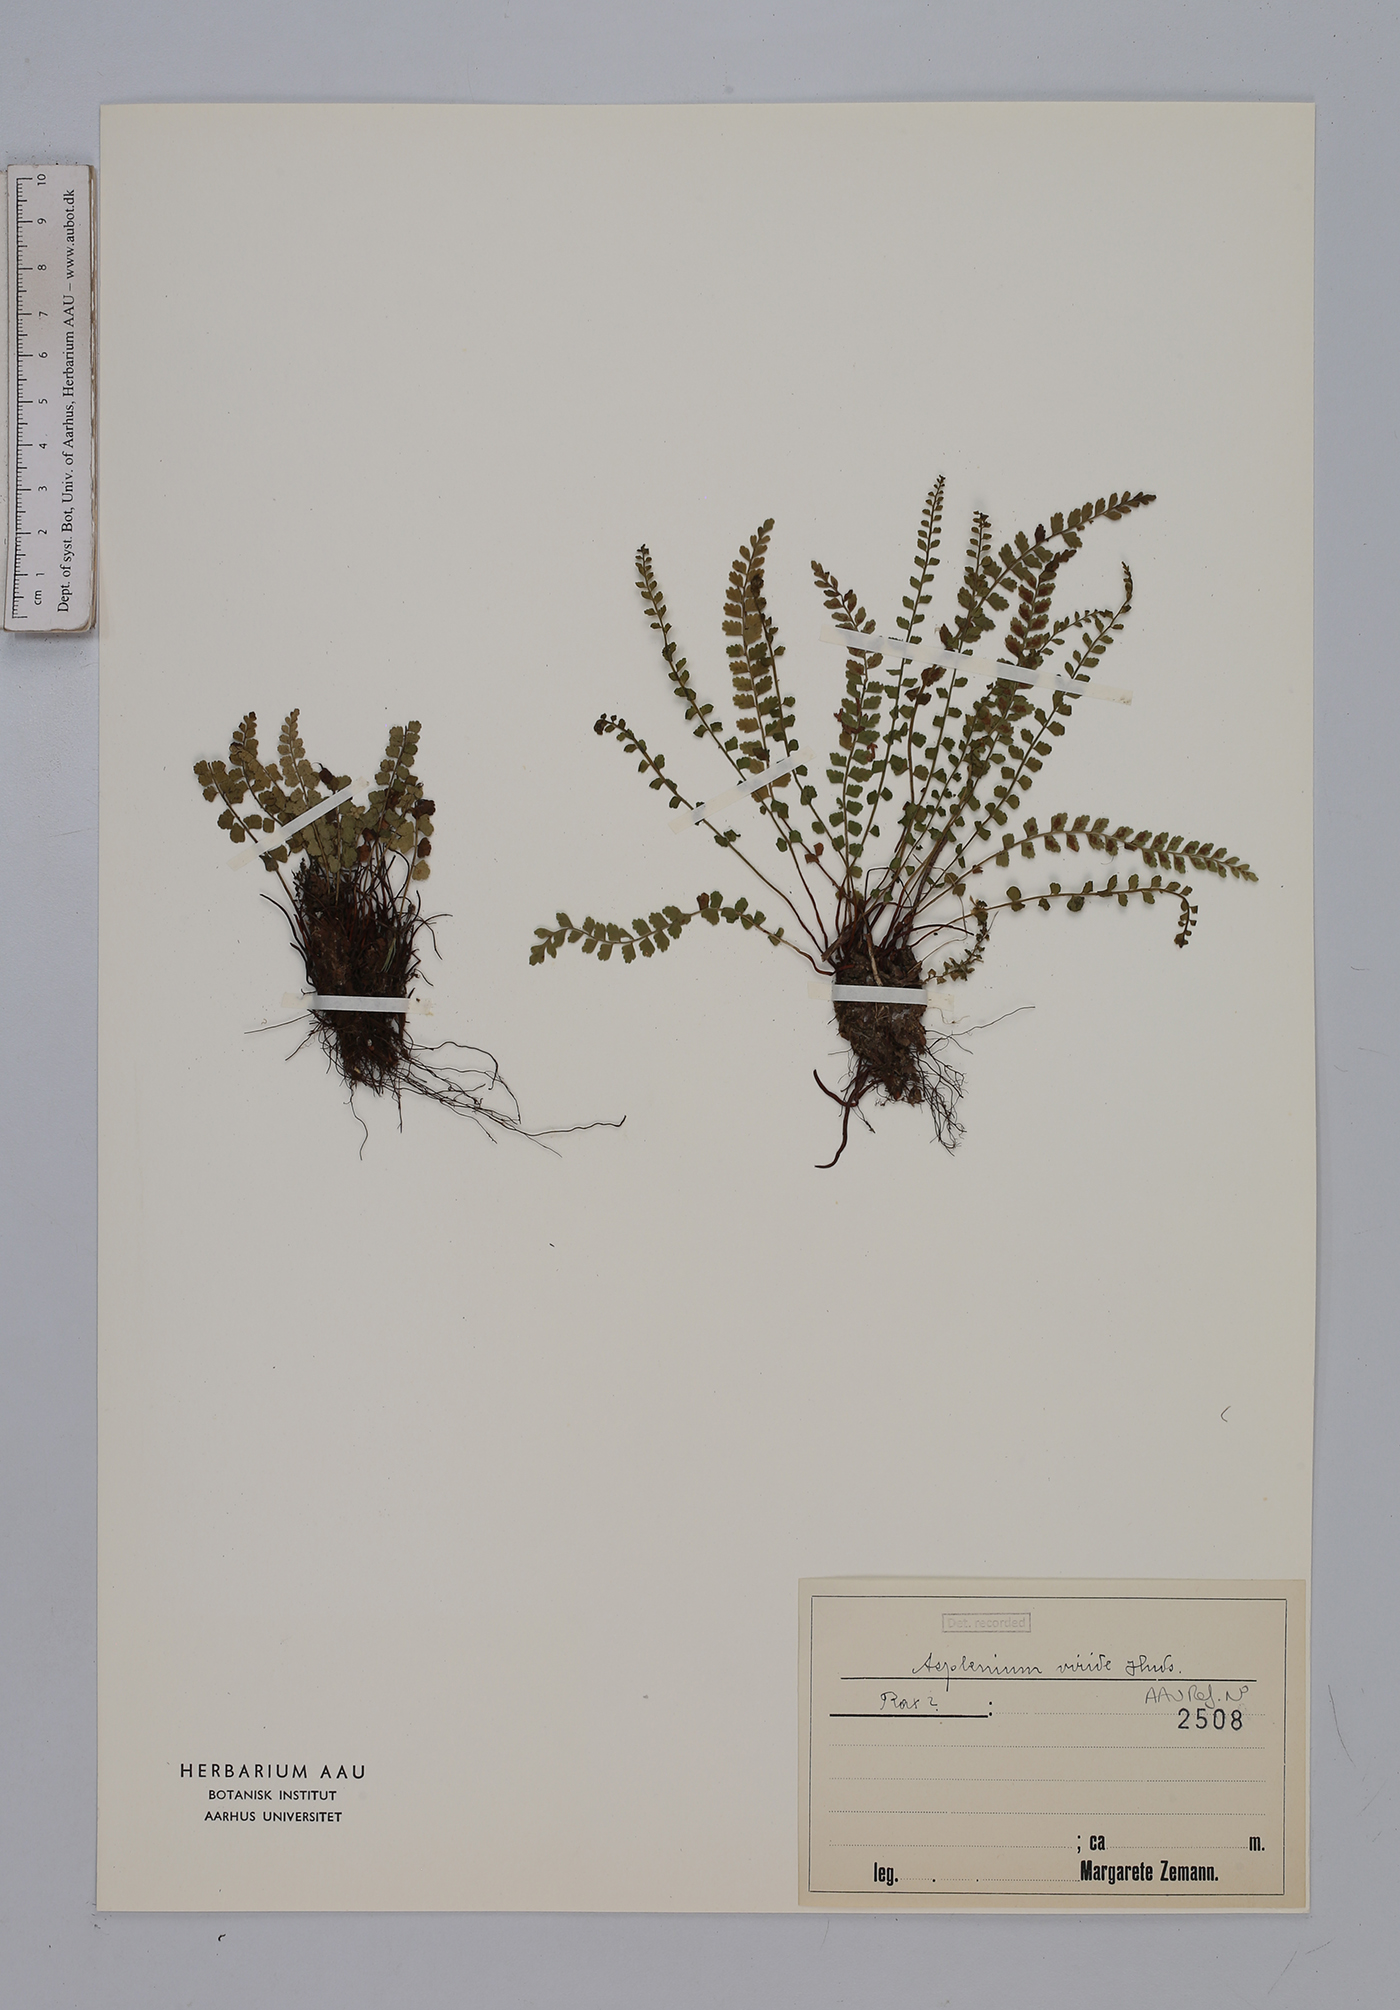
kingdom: Plantae
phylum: Tracheophyta
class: Polypodiopsida
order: Polypodiales
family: Aspleniaceae
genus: Asplenium
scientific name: Asplenium viride
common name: Green spleenwort
